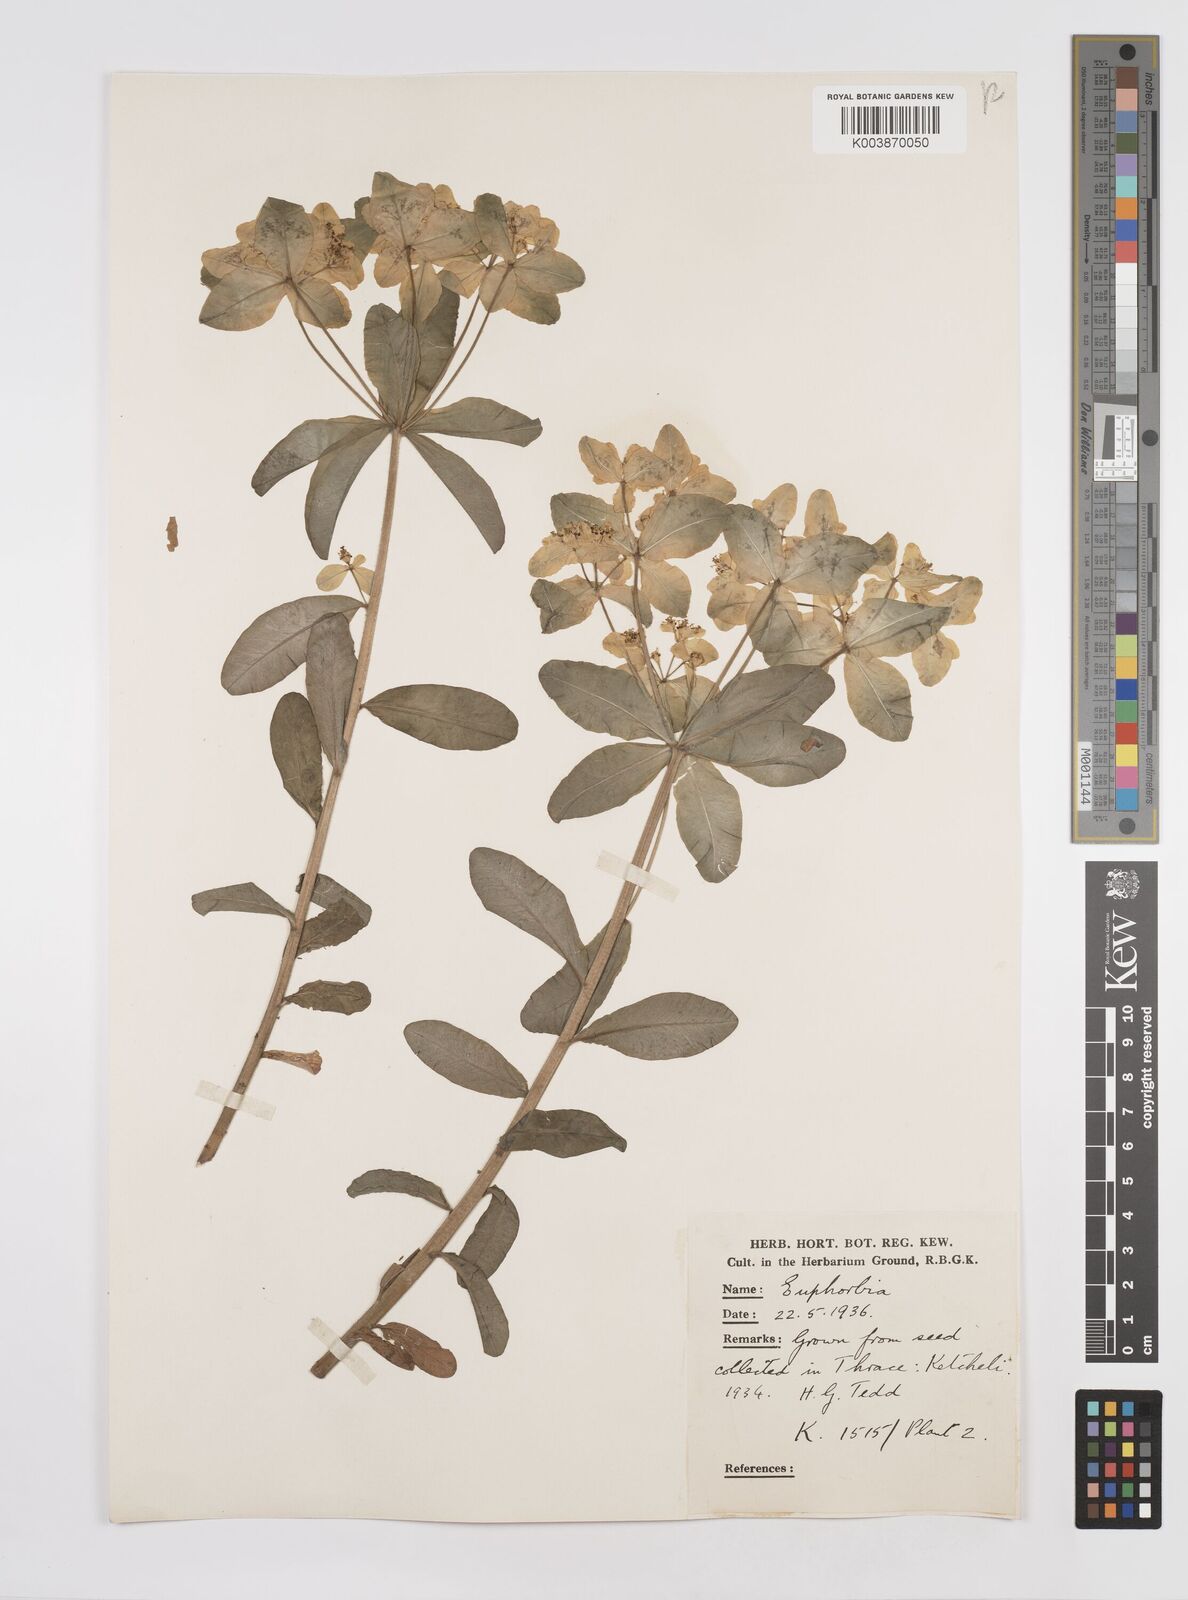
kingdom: Plantae
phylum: Tracheophyta
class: Magnoliopsida
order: Malpighiales
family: Euphorbiaceae
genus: Euphorbia
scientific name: Euphorbia epithymoides
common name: Cushion spurge
